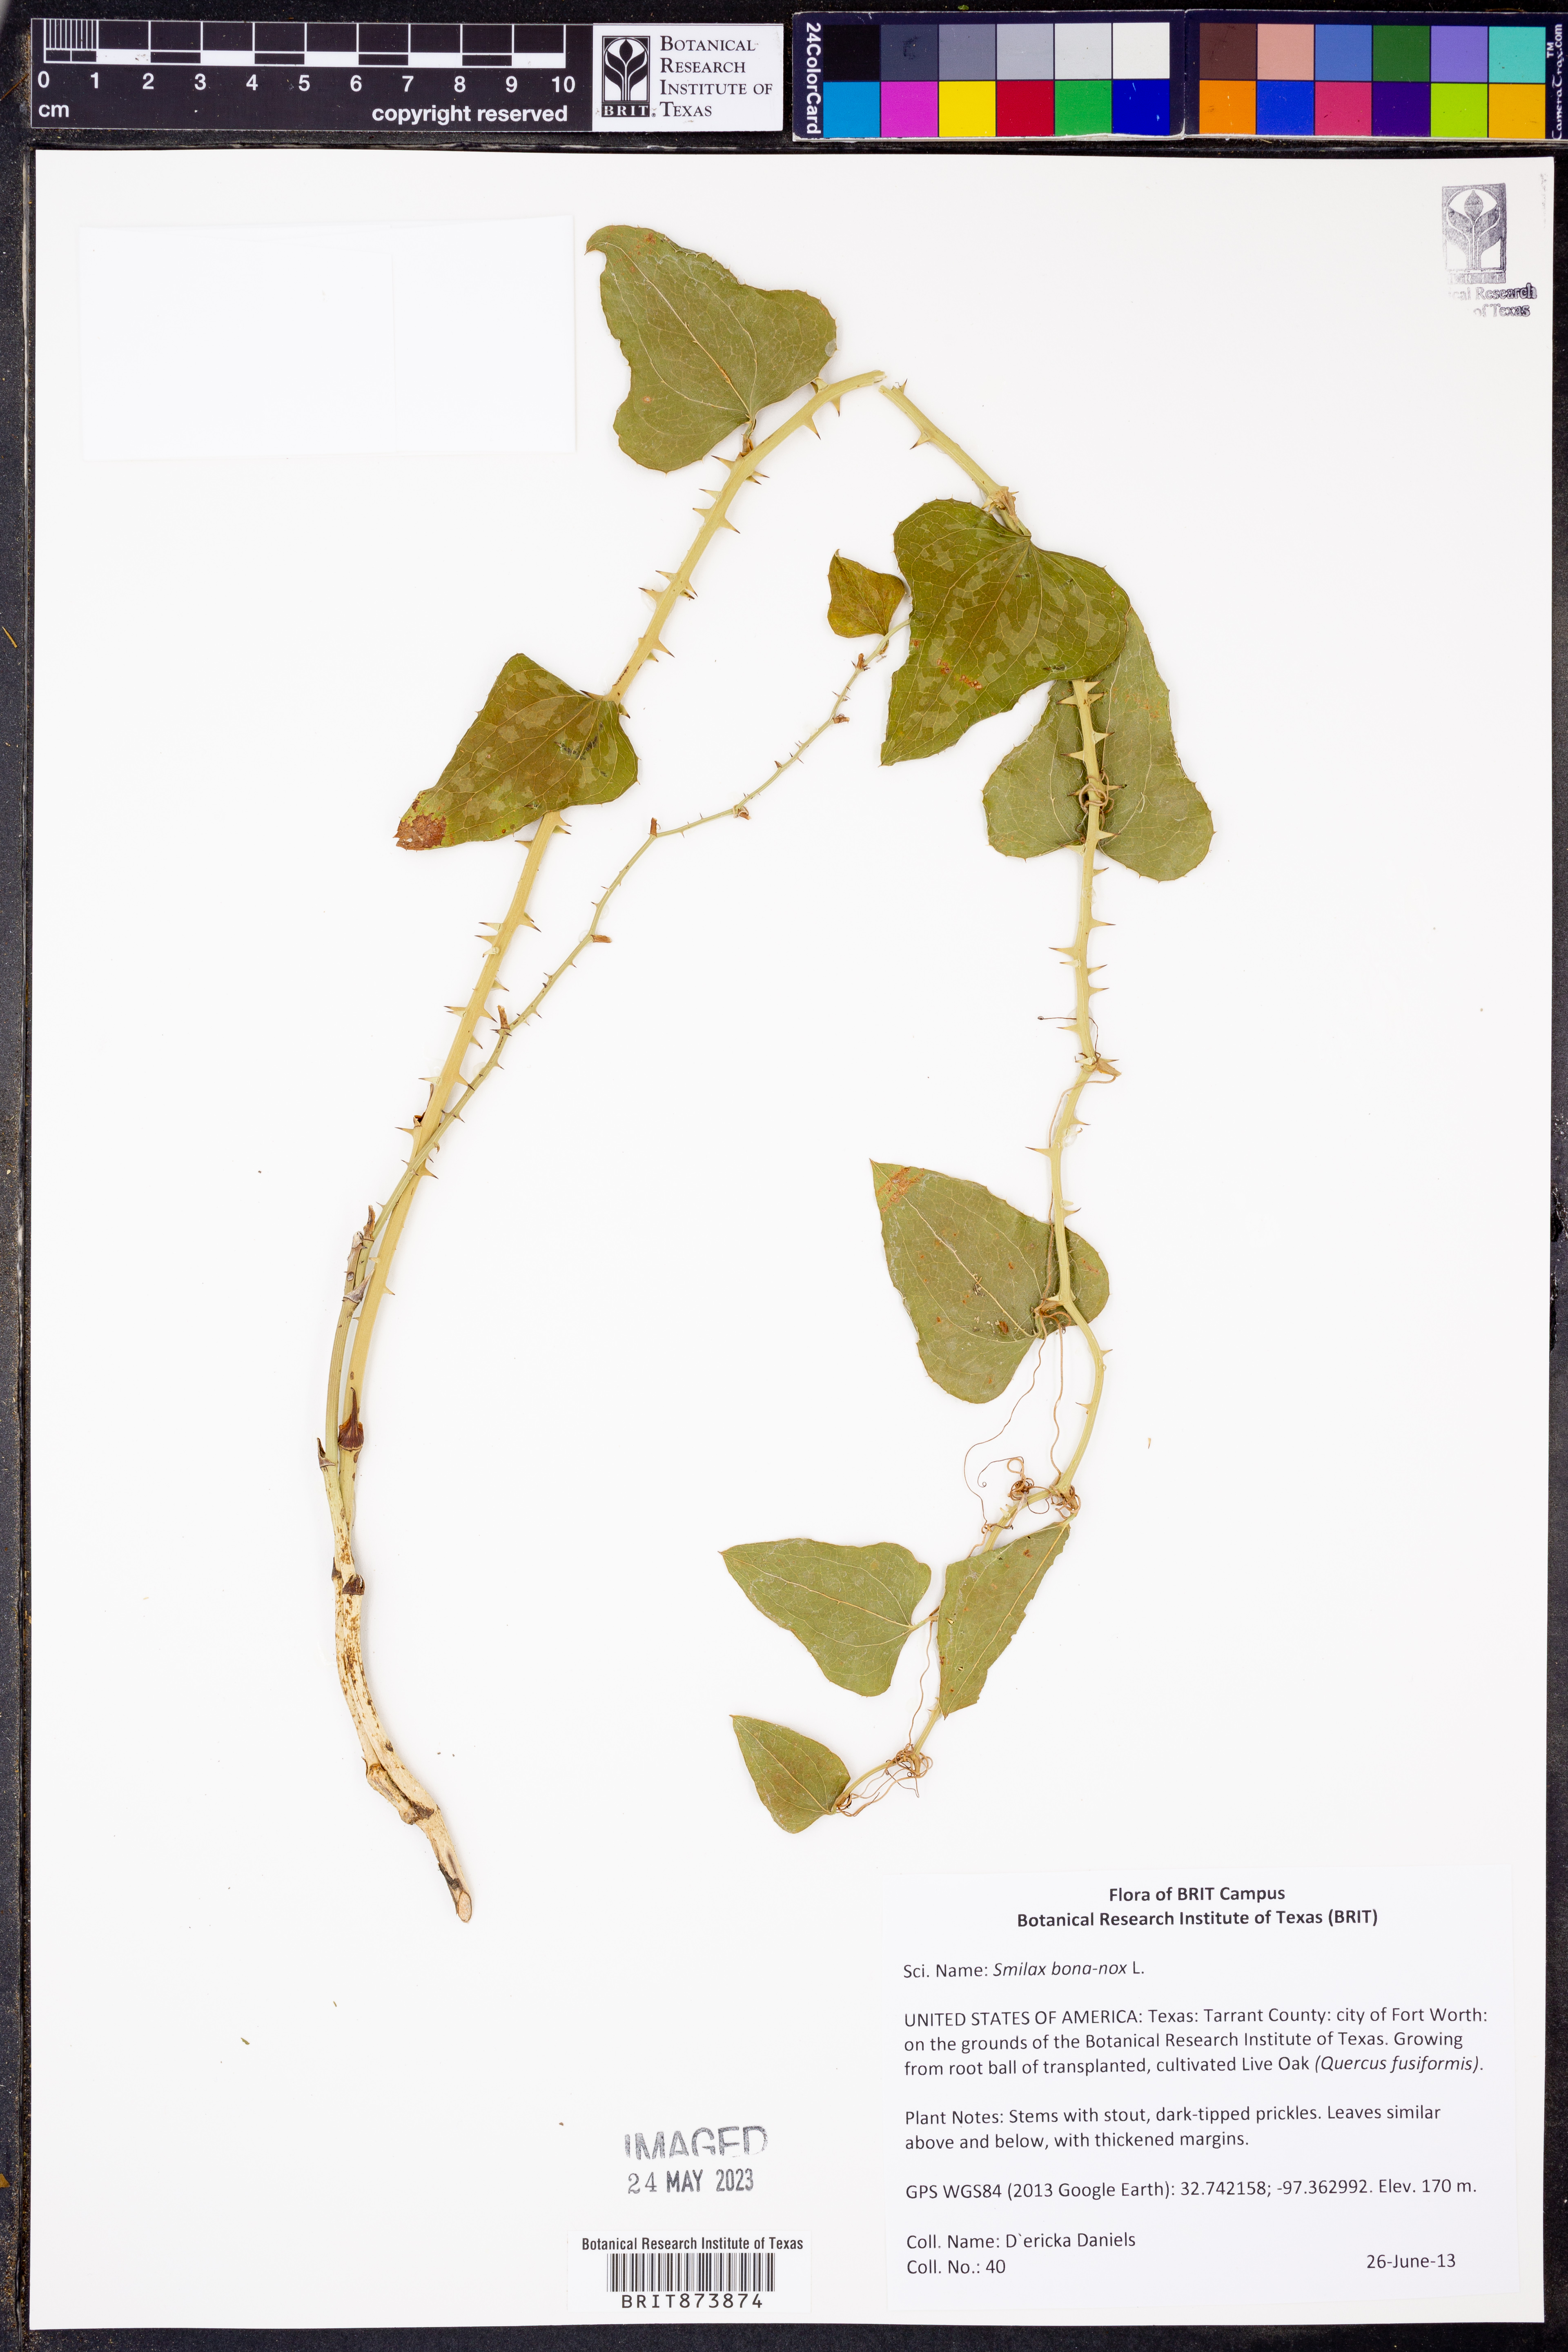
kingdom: Plantae
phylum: Tracheophyta
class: Liliopsida
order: Liliales
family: Smilacaceae
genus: Smilax
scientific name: Smilax bona-nox
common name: Catbrier
